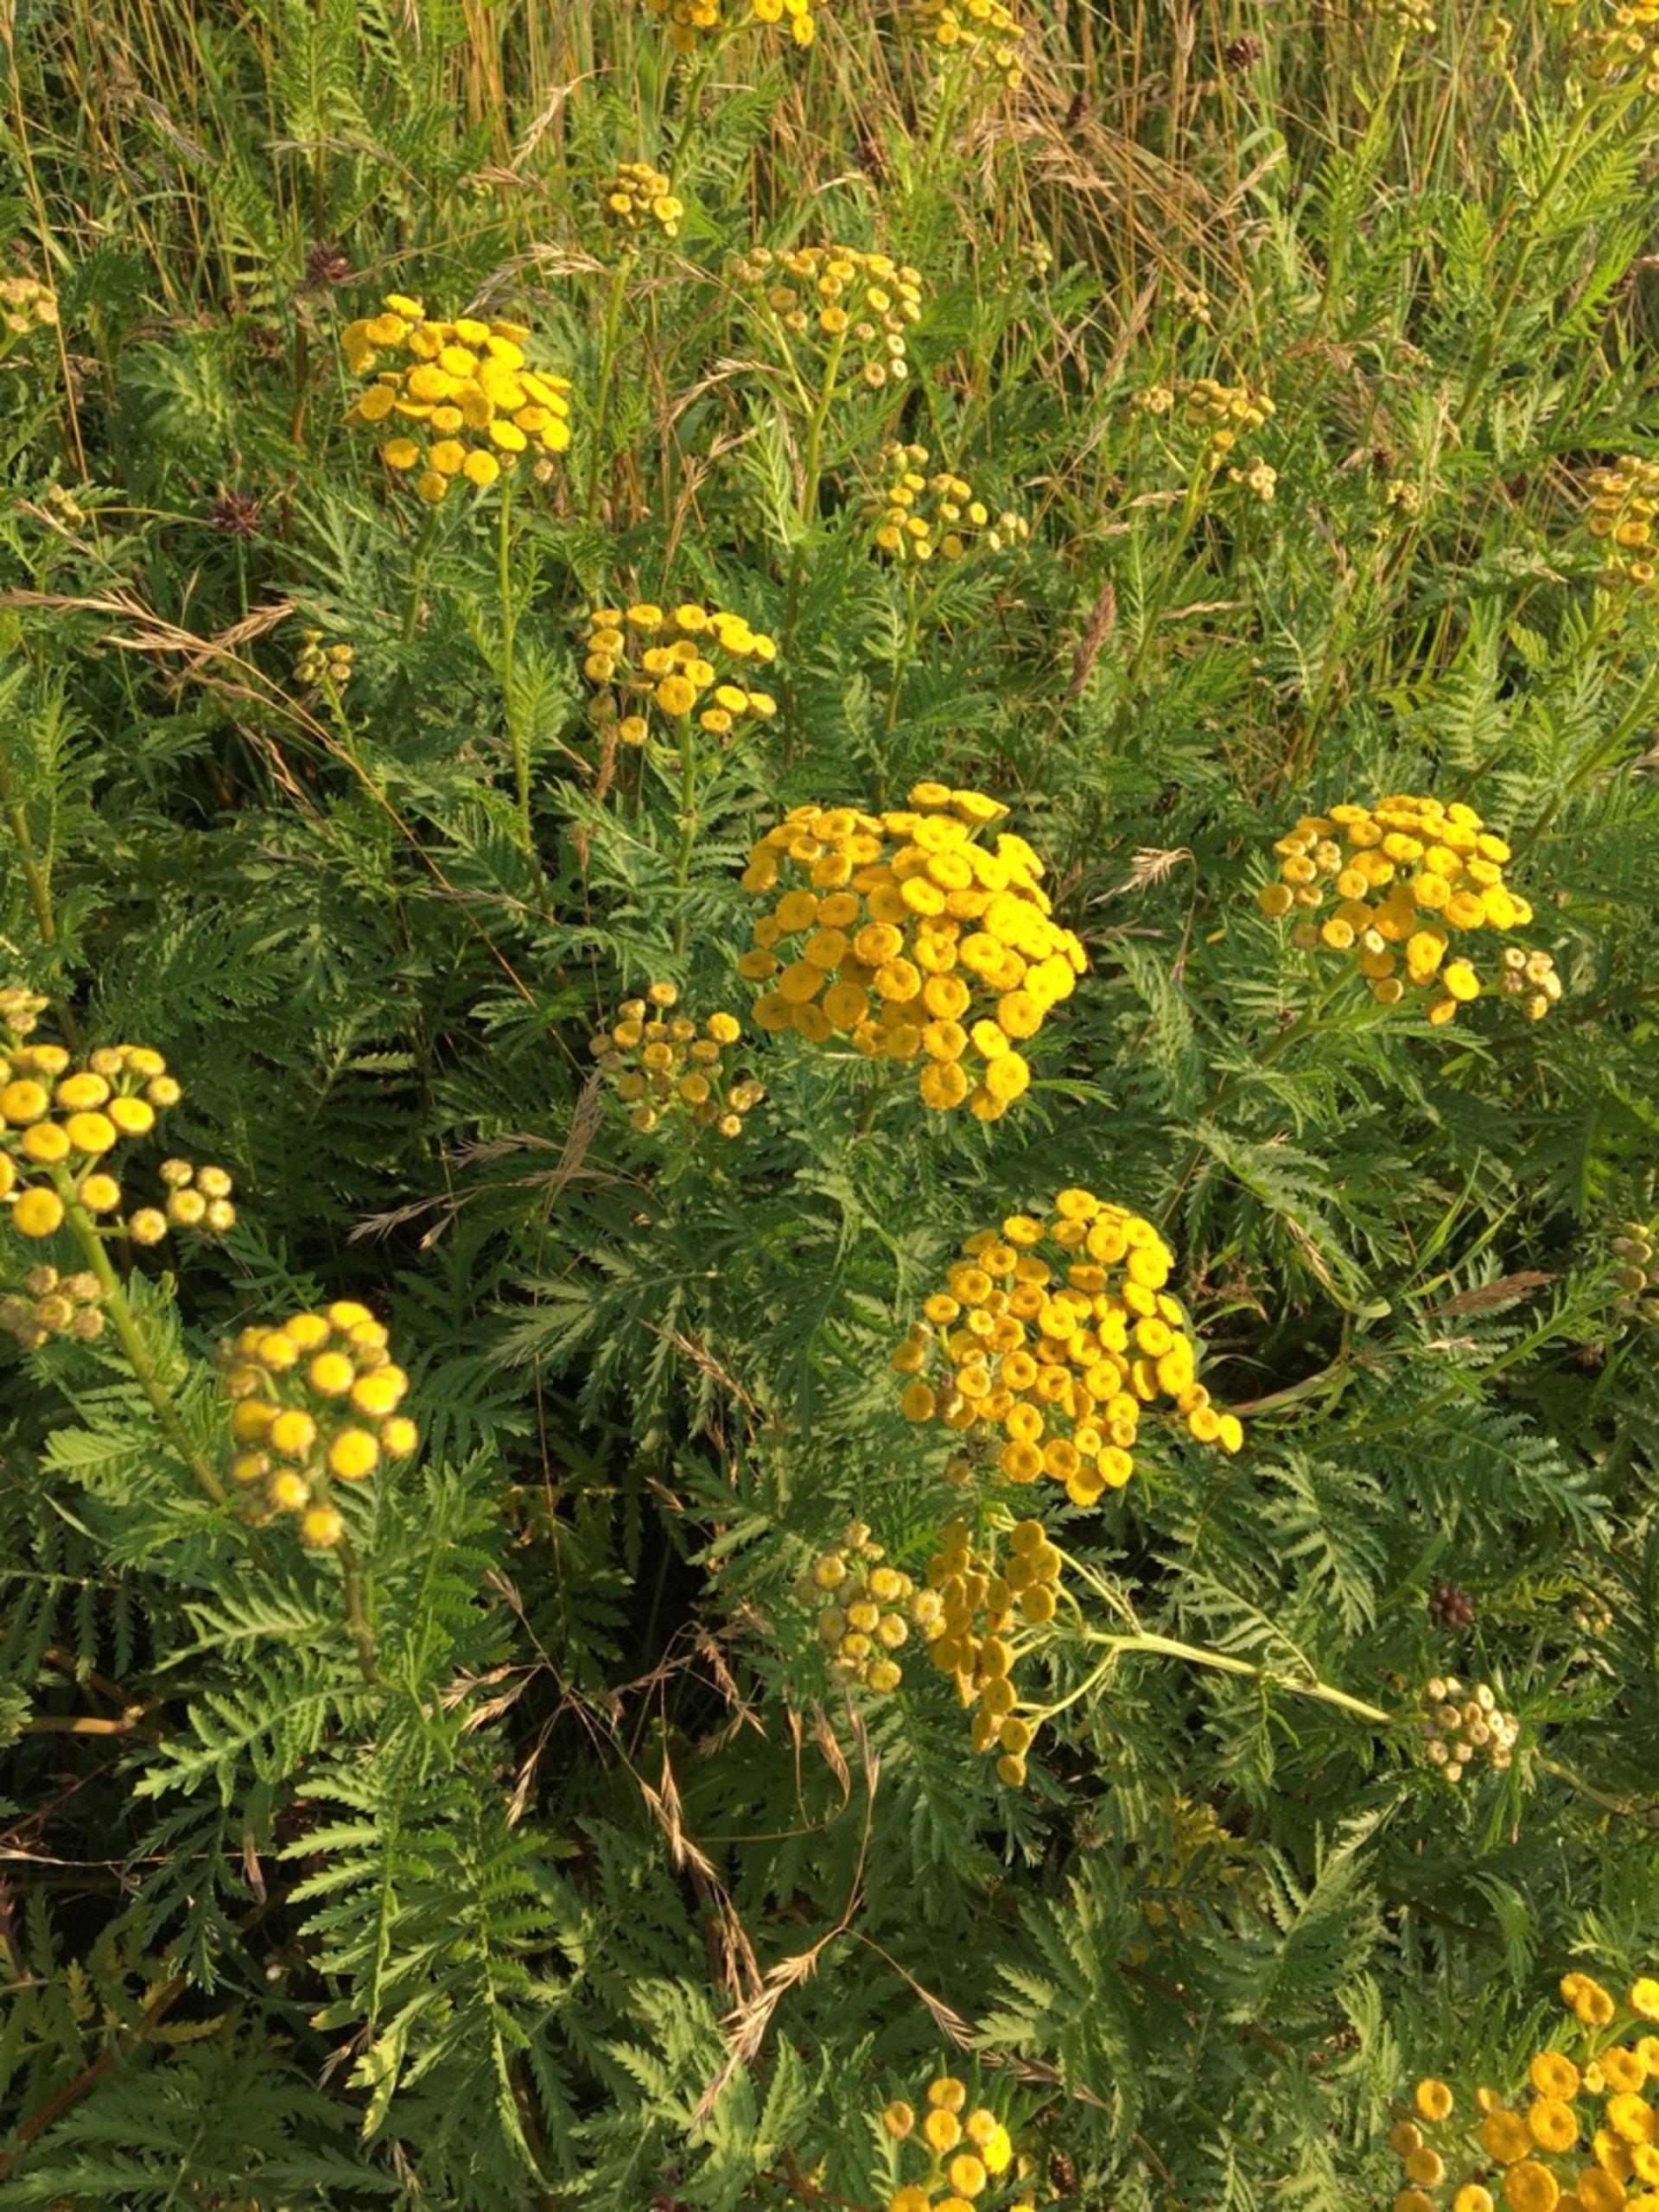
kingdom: Plantae
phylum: Tracheophyta
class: Magnoliopsida
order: Asterales
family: Asteraceae
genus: Tanacetum
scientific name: Tanacetum vulgare
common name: Rejnfan
